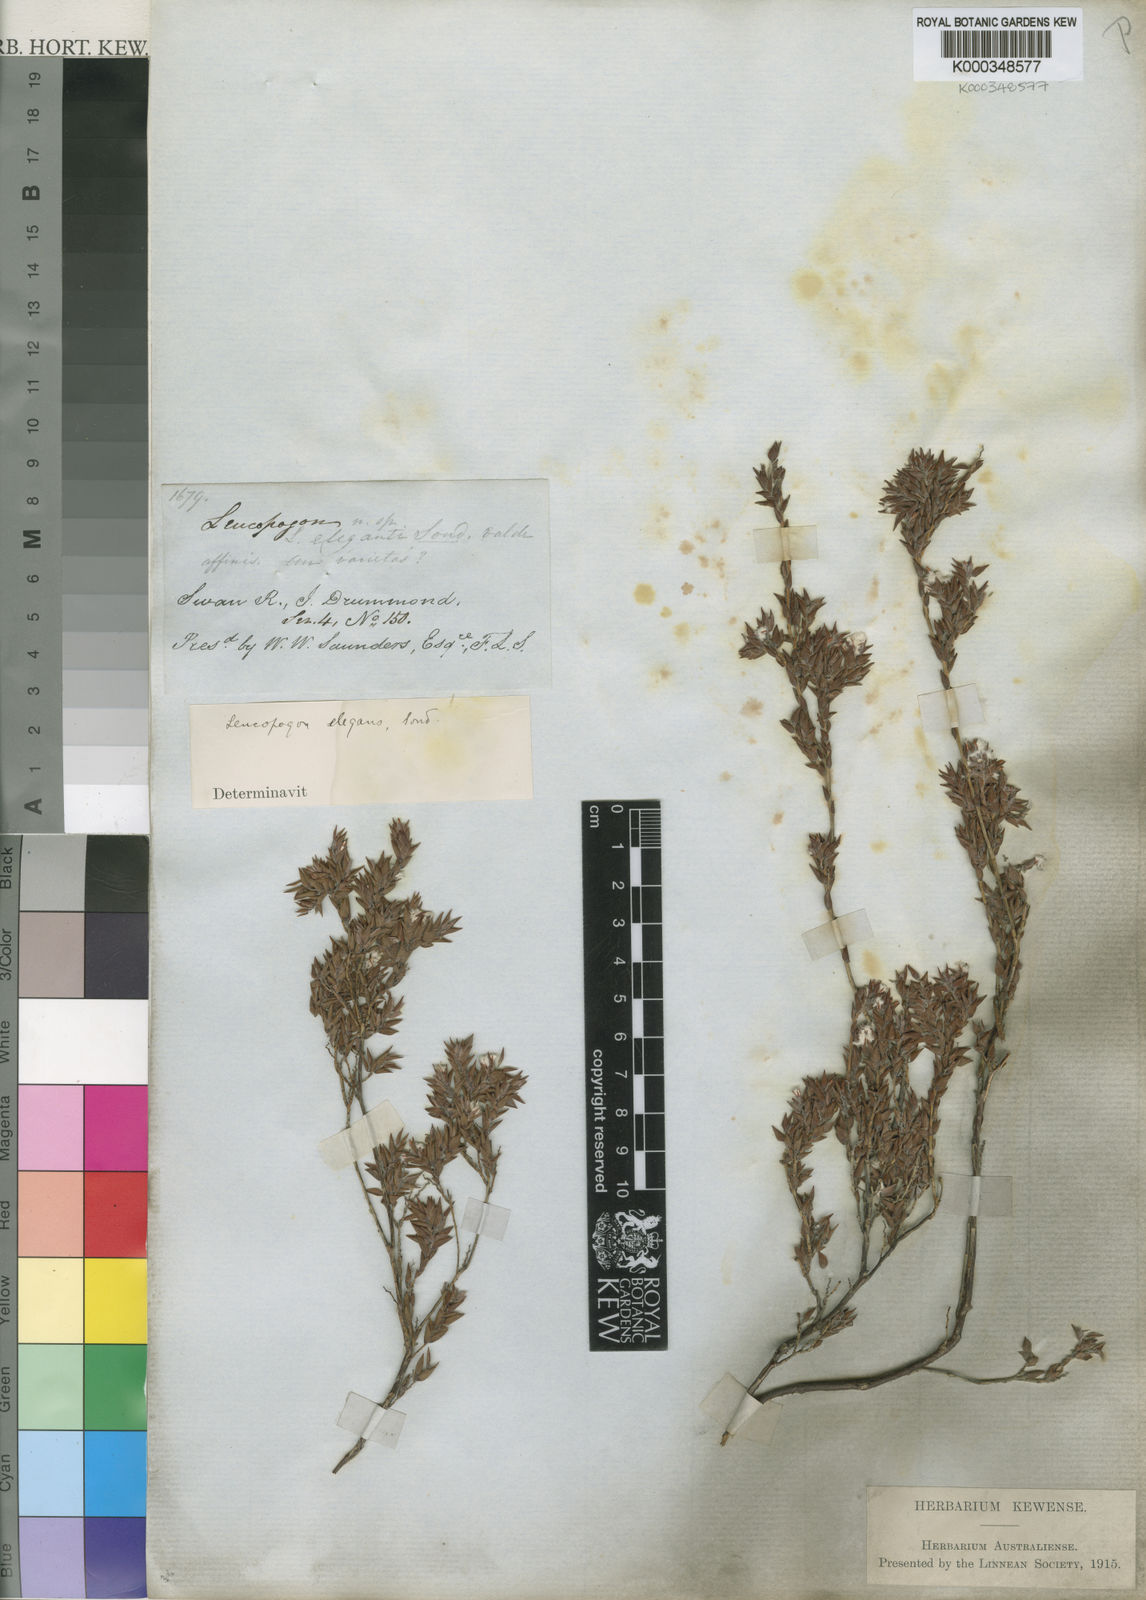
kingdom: Plantae
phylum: Tracheophyta
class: Magnoliopsida
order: Ericales
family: Ericaceae
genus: Leucopogon
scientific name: Leucopogon elegans
